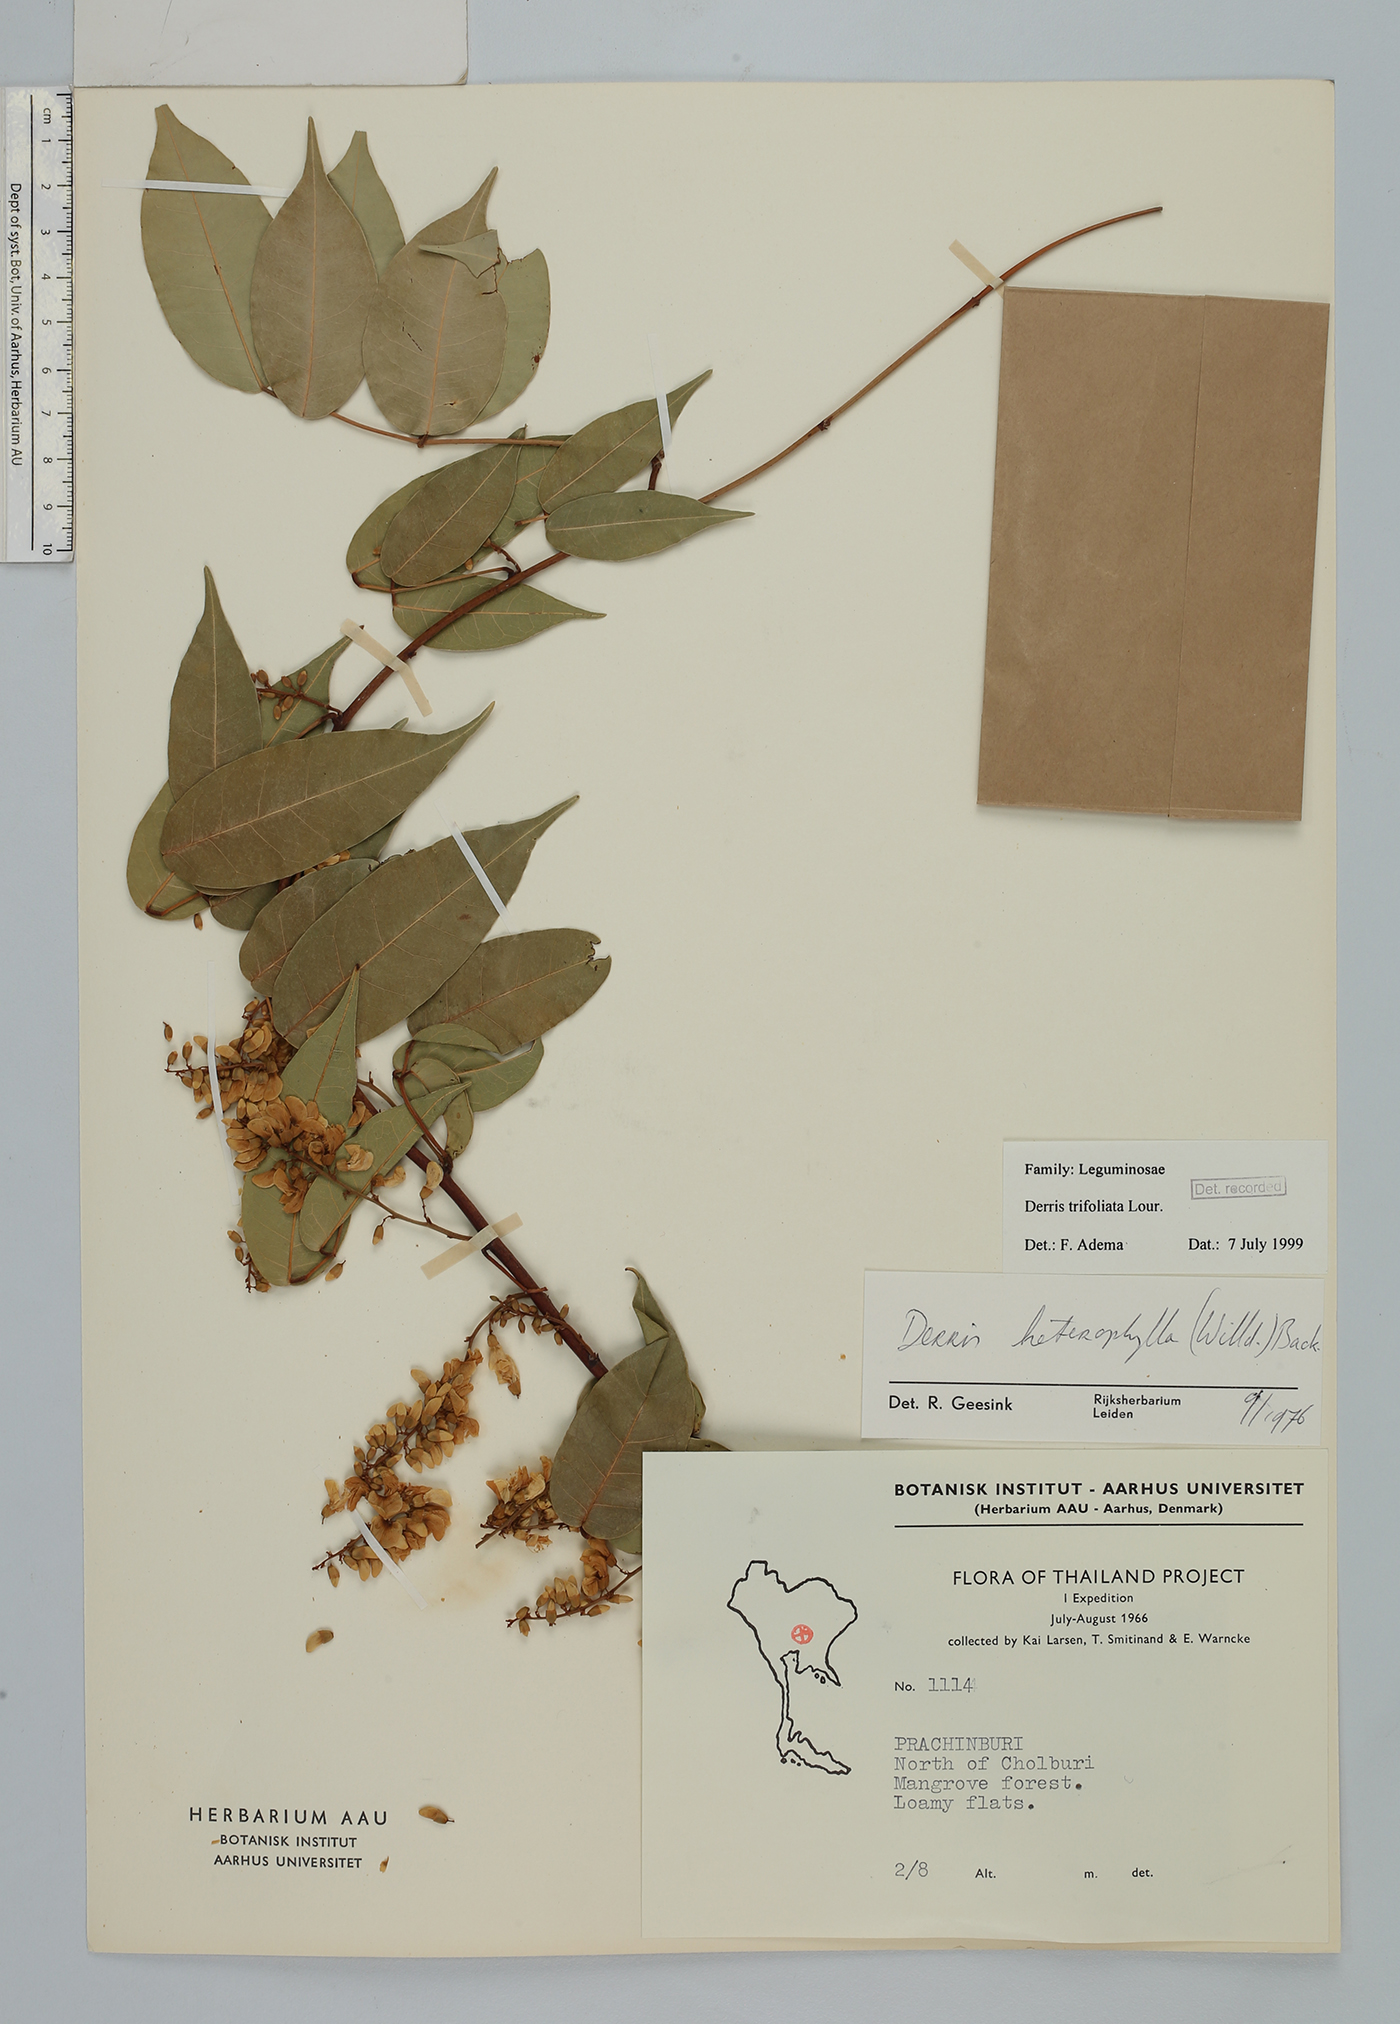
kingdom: Plantae
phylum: Tracheophyta
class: Magnoliopsida
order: Fabales
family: Fabaceae
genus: Derris
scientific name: Derris trifoliata
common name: Three-leaf derris
